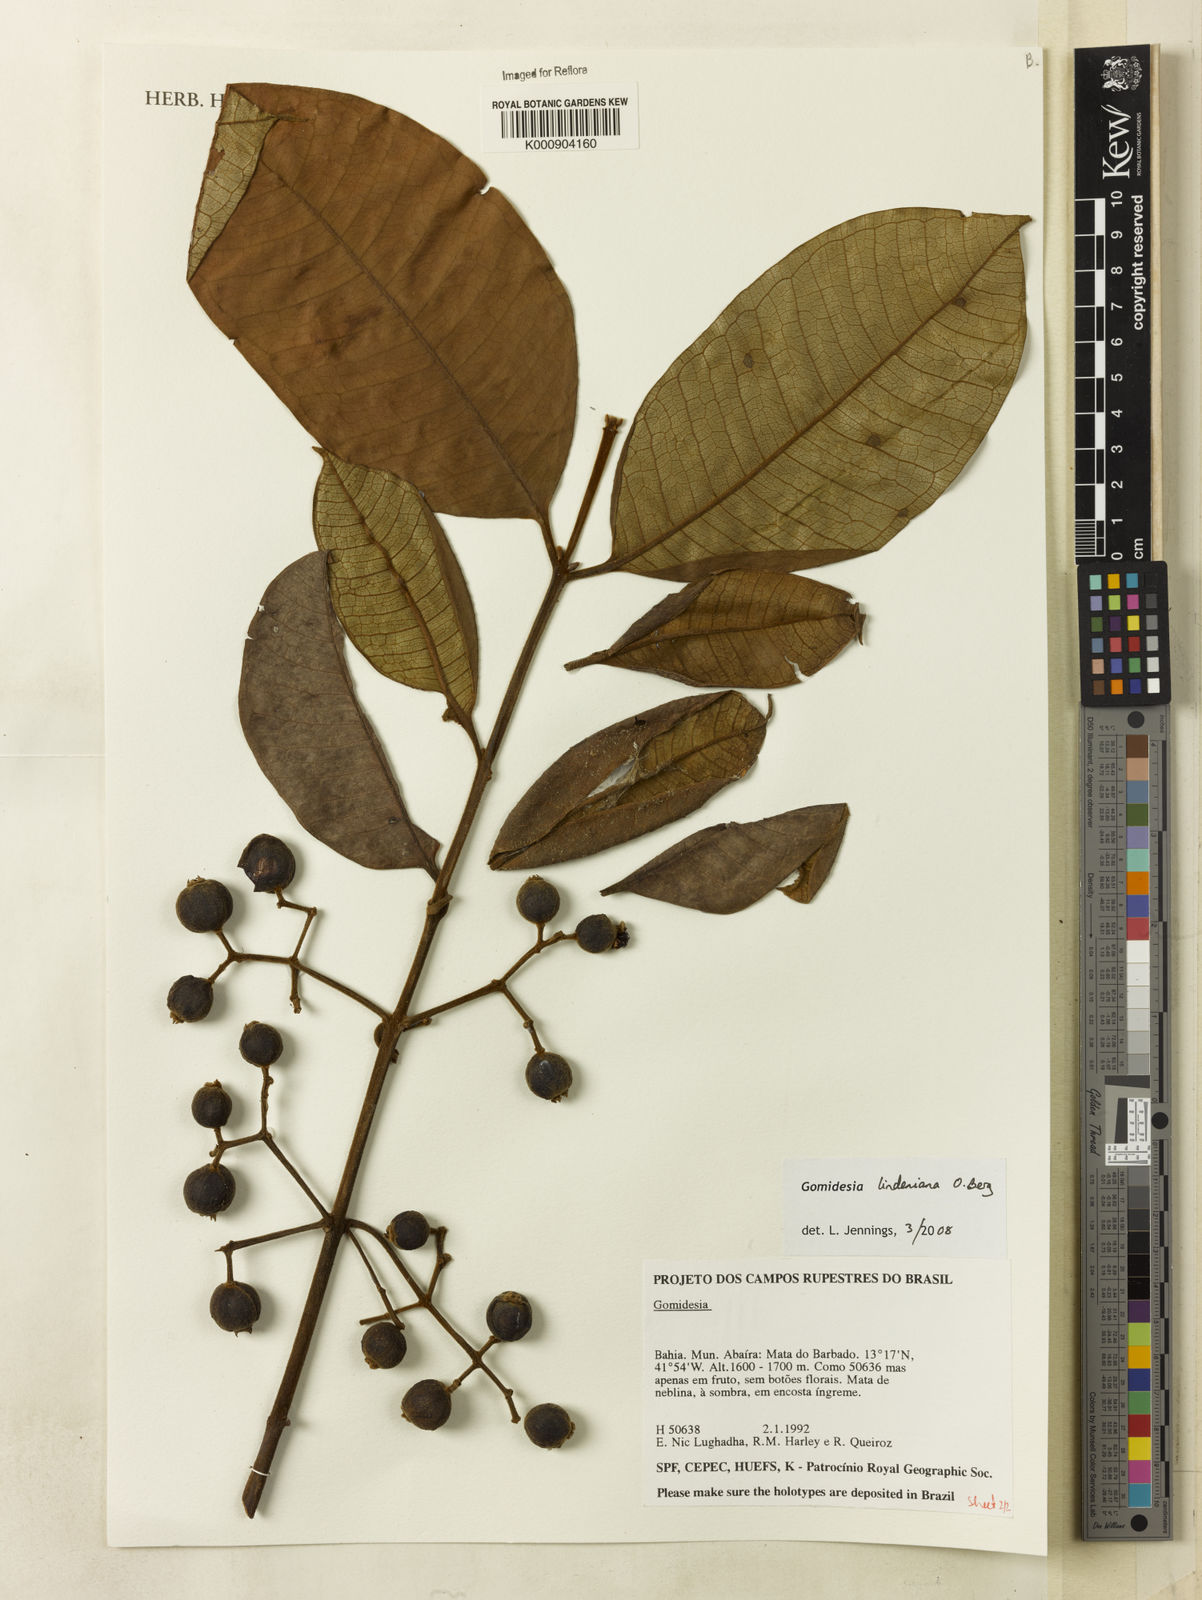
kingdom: Plantae
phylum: Tracheophyta
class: Magnoliopsida
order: Myrtales
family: Myrtaceae
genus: Myrcia
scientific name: Myrcia fenzliana
